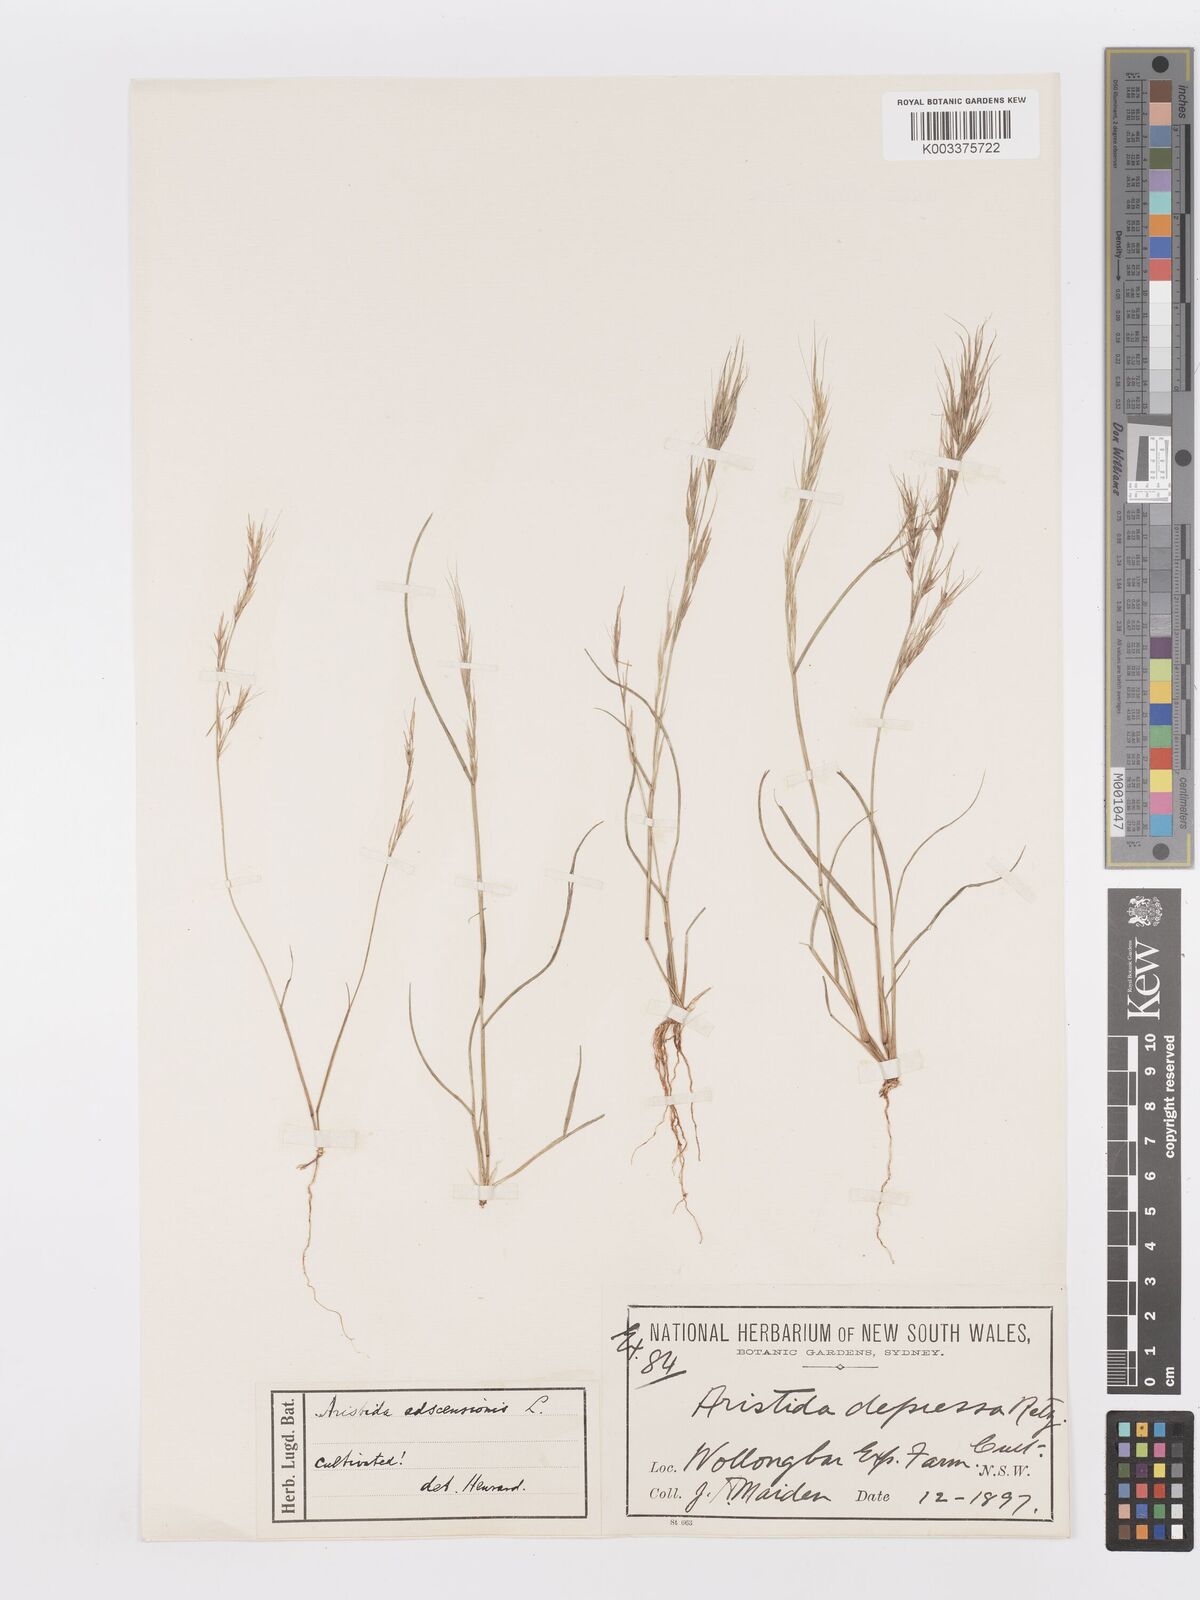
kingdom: Plantae
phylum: Tracheophyta
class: Liliopsida
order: Poales
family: Poaceae
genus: Aristida
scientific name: Aristida adscensionis
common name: Sixweeks threeawn
